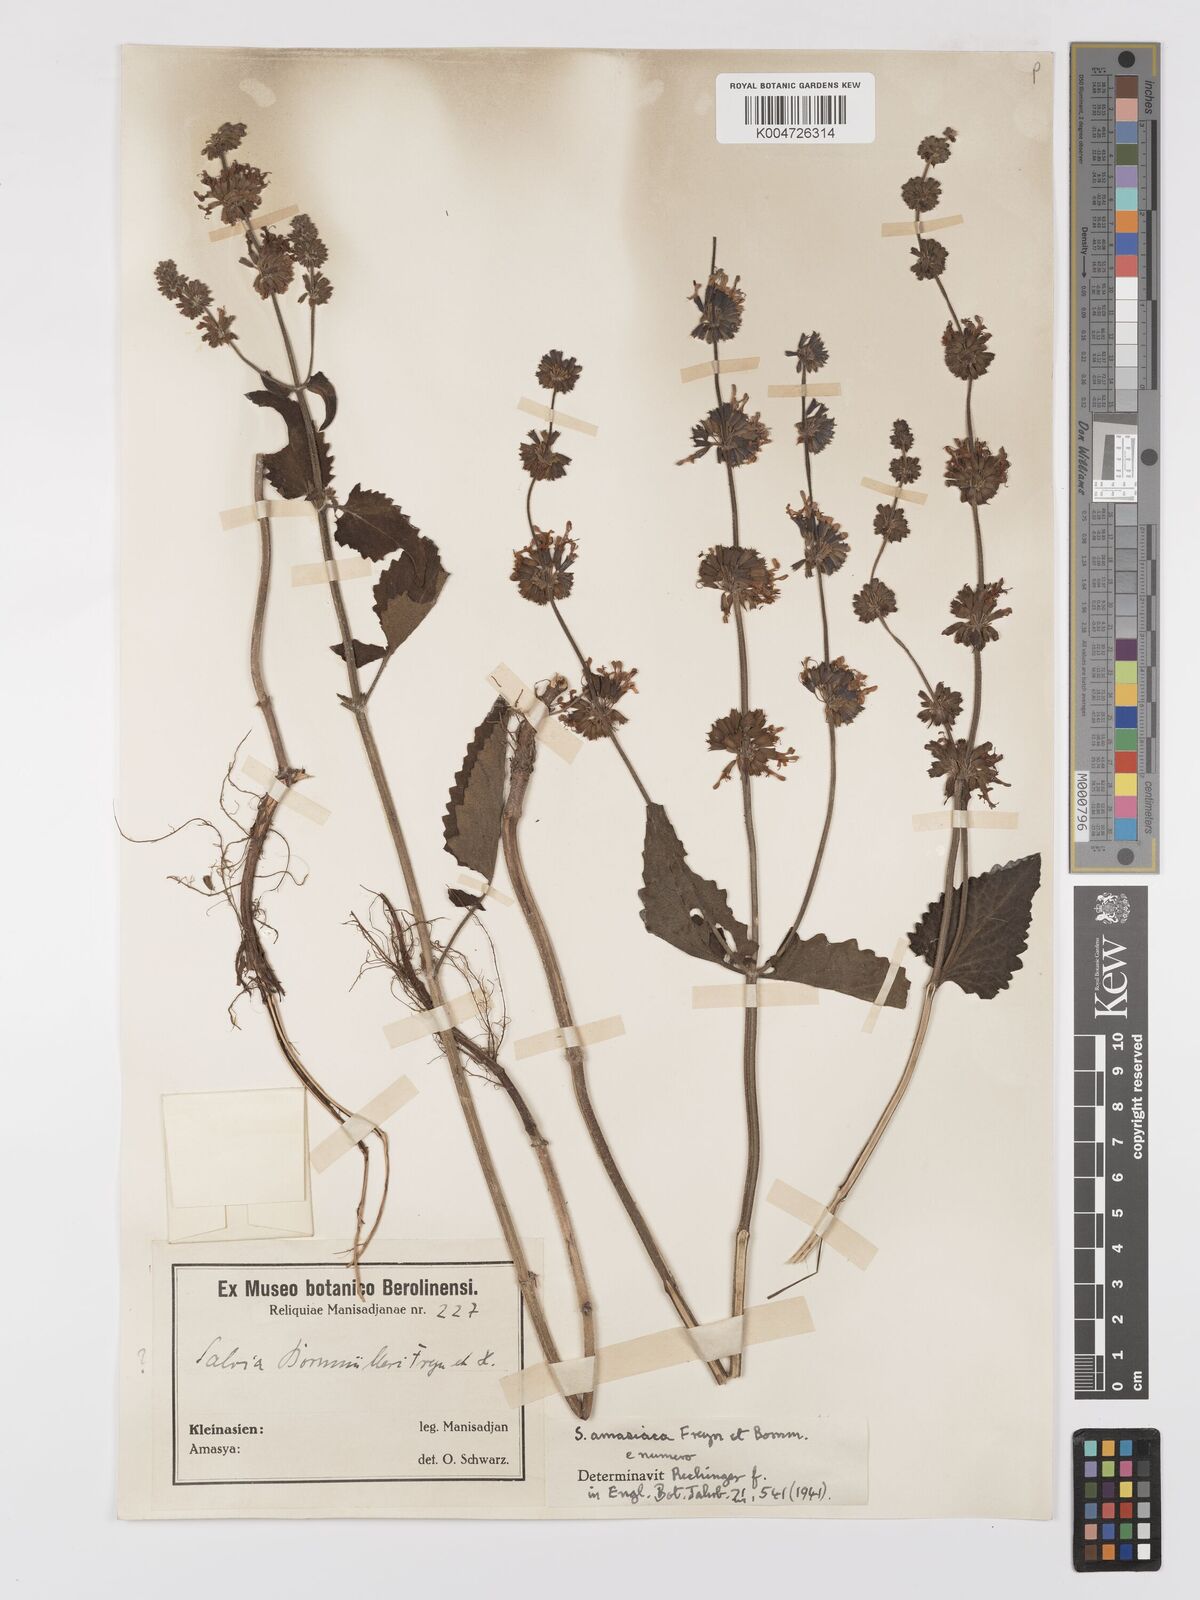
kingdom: Plantae
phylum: Tracheophyta
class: Magnoliopsida
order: Lamiales
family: Lamiaceae
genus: Salvia
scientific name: Salvia verticillata
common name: Whorled clary
